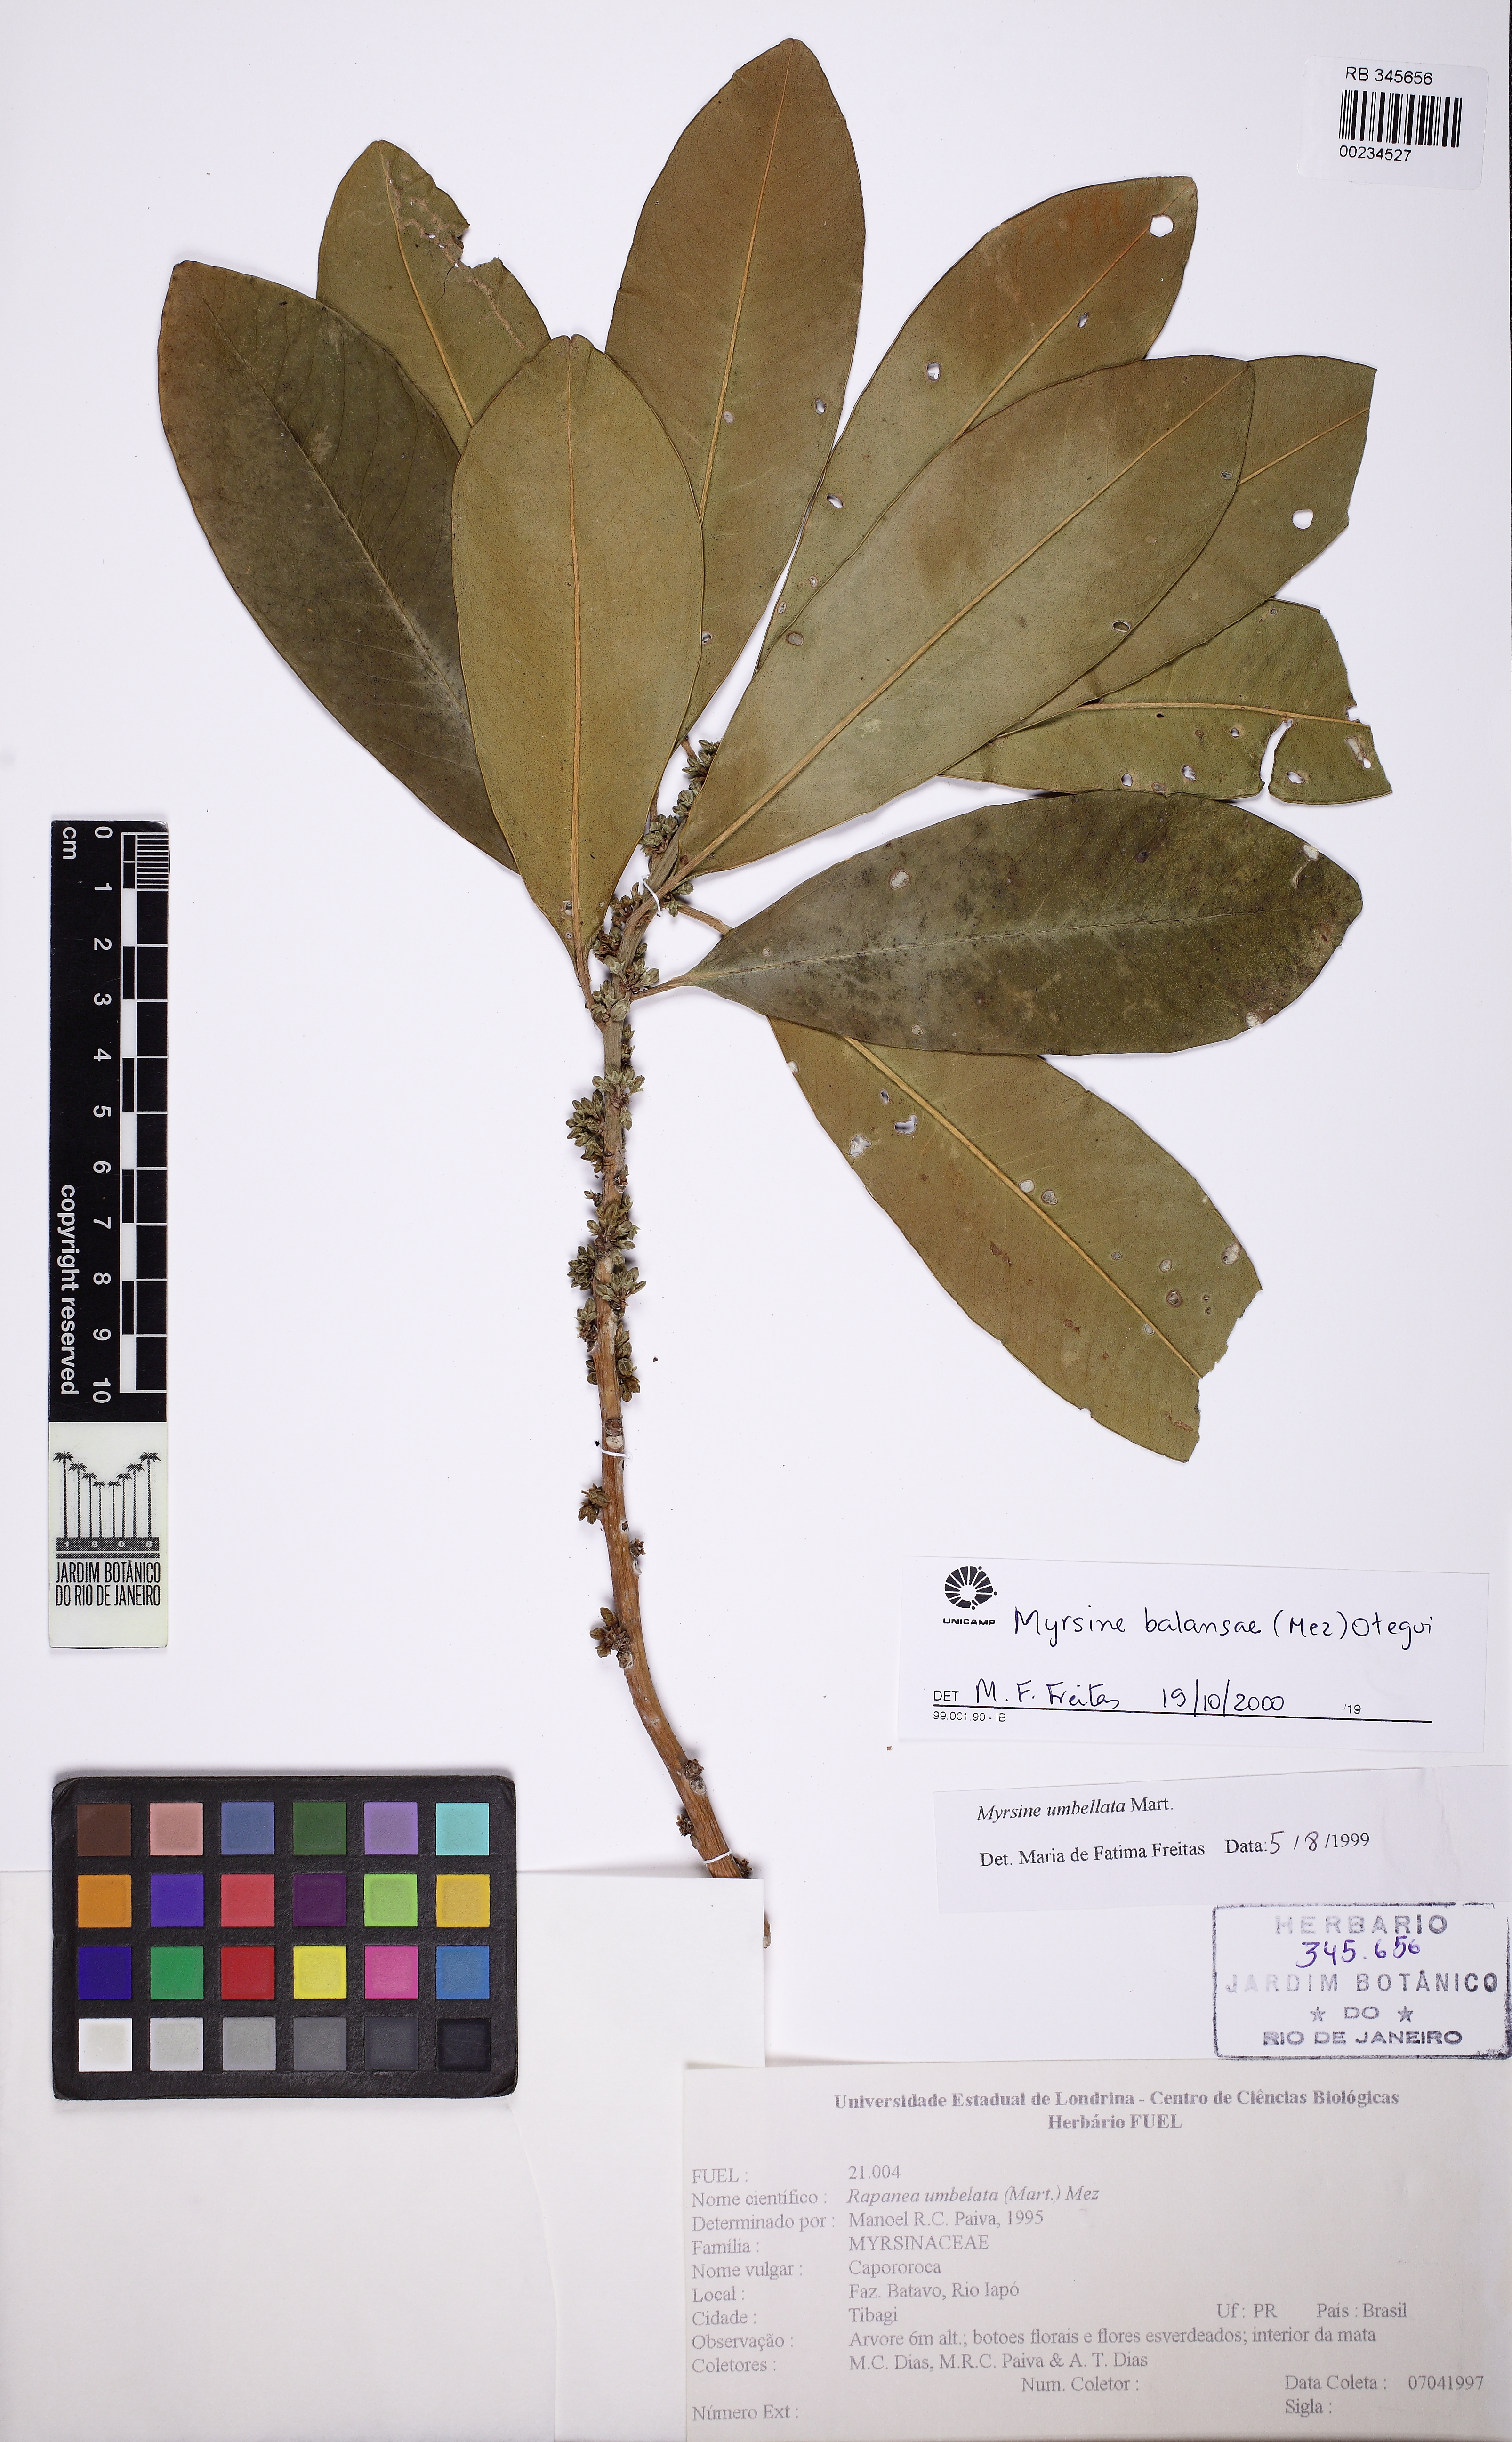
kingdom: Plantae
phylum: Tracheophyta
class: Magnoliopsida
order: Ericales
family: Primulaceae
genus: Myrsine
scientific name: Myrsine balansae
